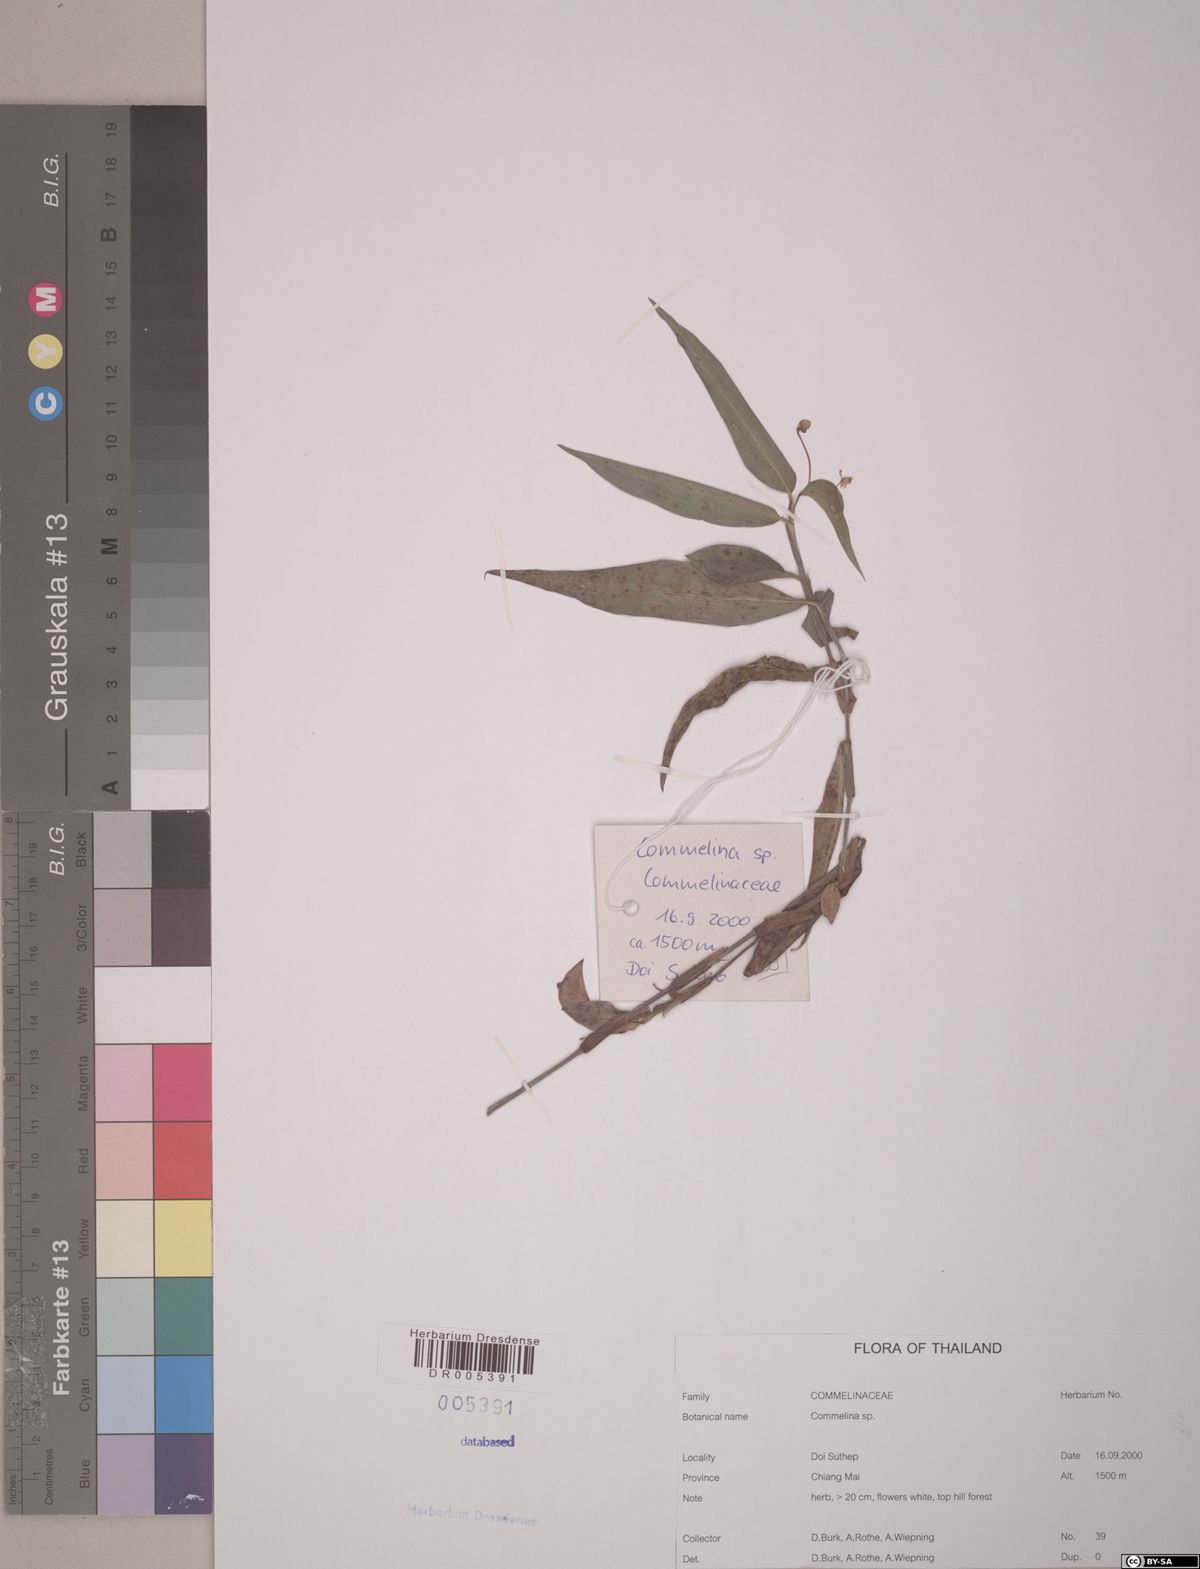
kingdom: Plantae
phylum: Tracheophyta
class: Liliopsida
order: Commelinales
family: Commelinaceae
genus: Commelina
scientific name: Commelina
